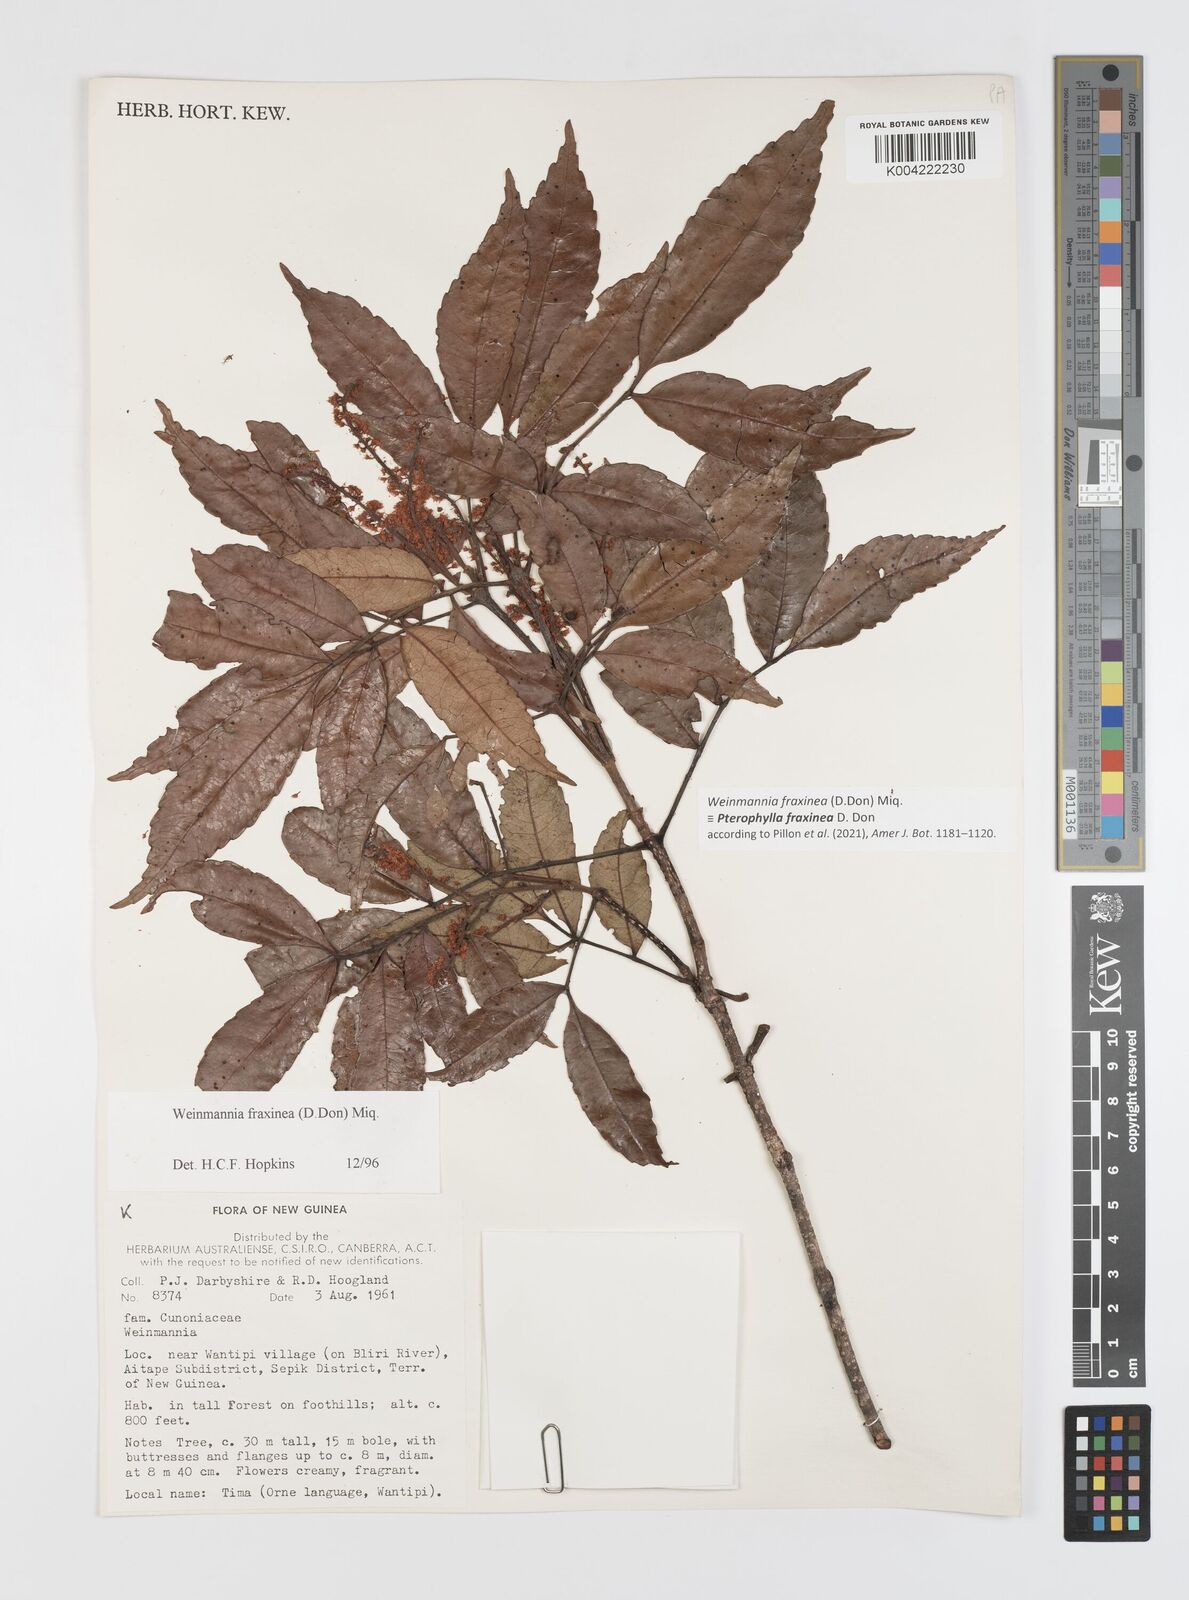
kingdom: Plantae
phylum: Tracheophyta
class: Magnoliopsida
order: Oxalidales
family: Cunoniaceae
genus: Pterophylla
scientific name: Pterophylla fraxinea
